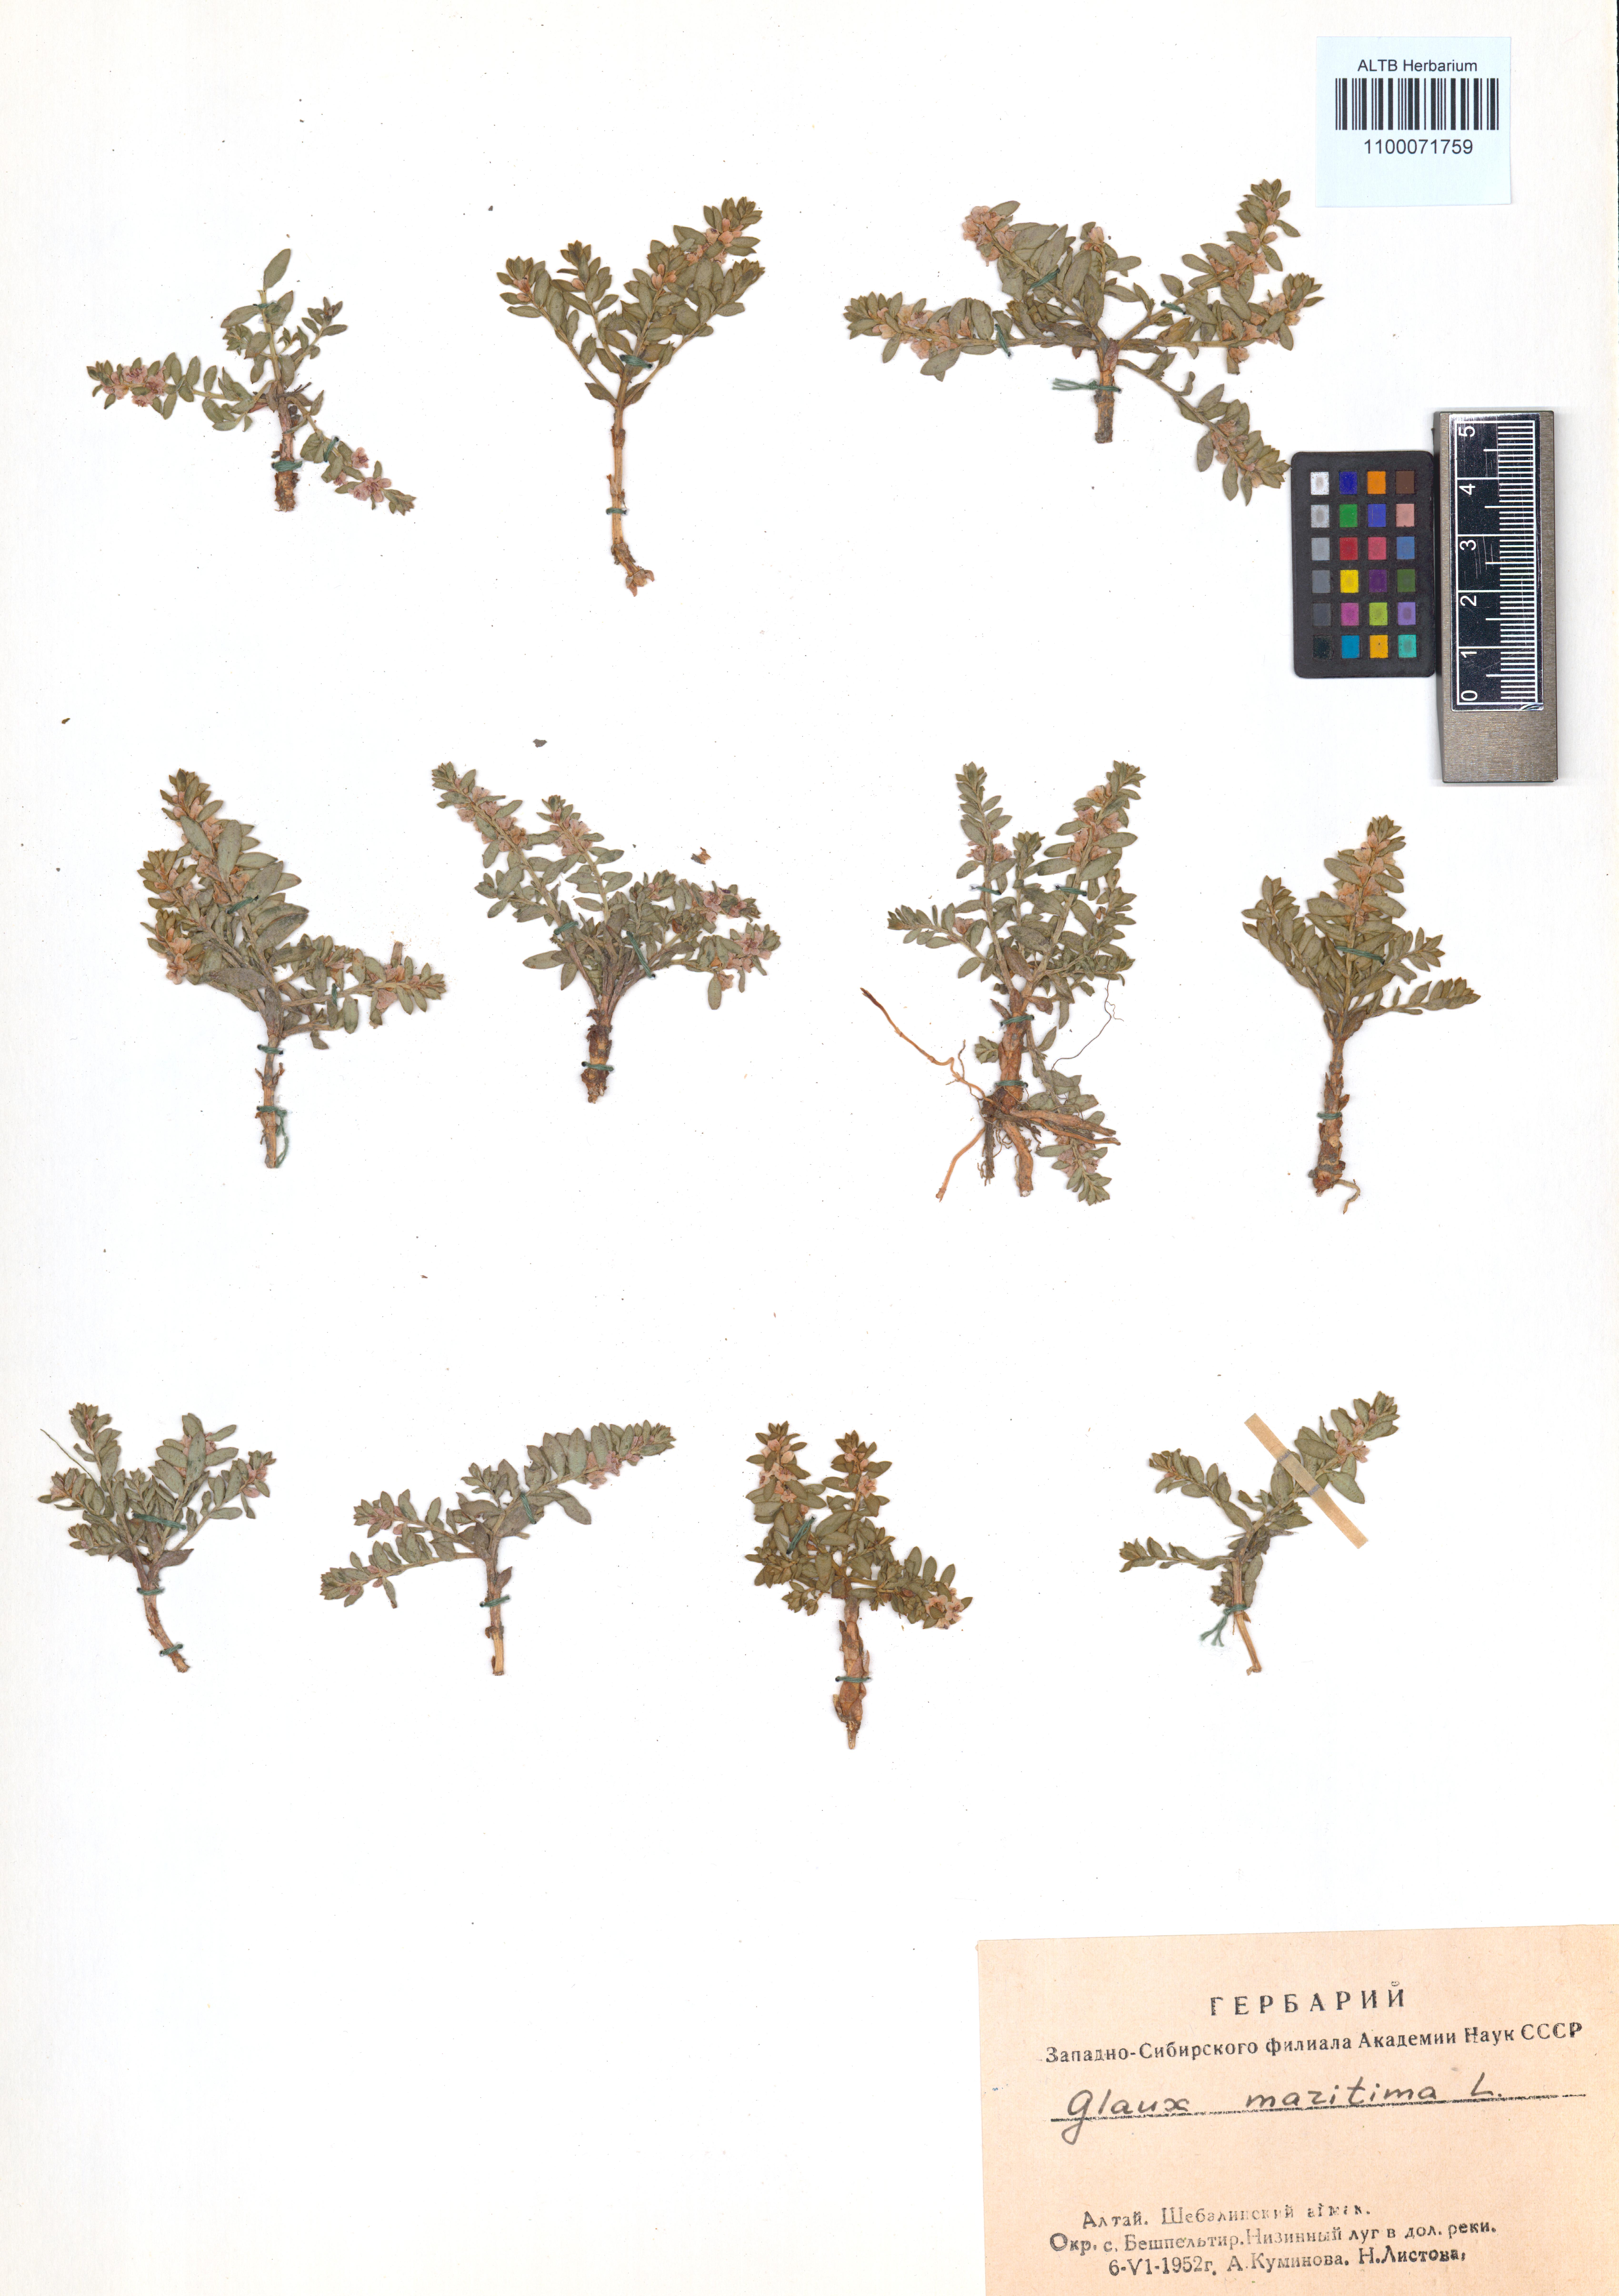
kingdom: Plantae
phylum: Tracheophyta
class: Magnoliopsida
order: Ericales
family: Primulaceae
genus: Lysimachia
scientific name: Lysimachia maritima
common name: Sea milkwort
